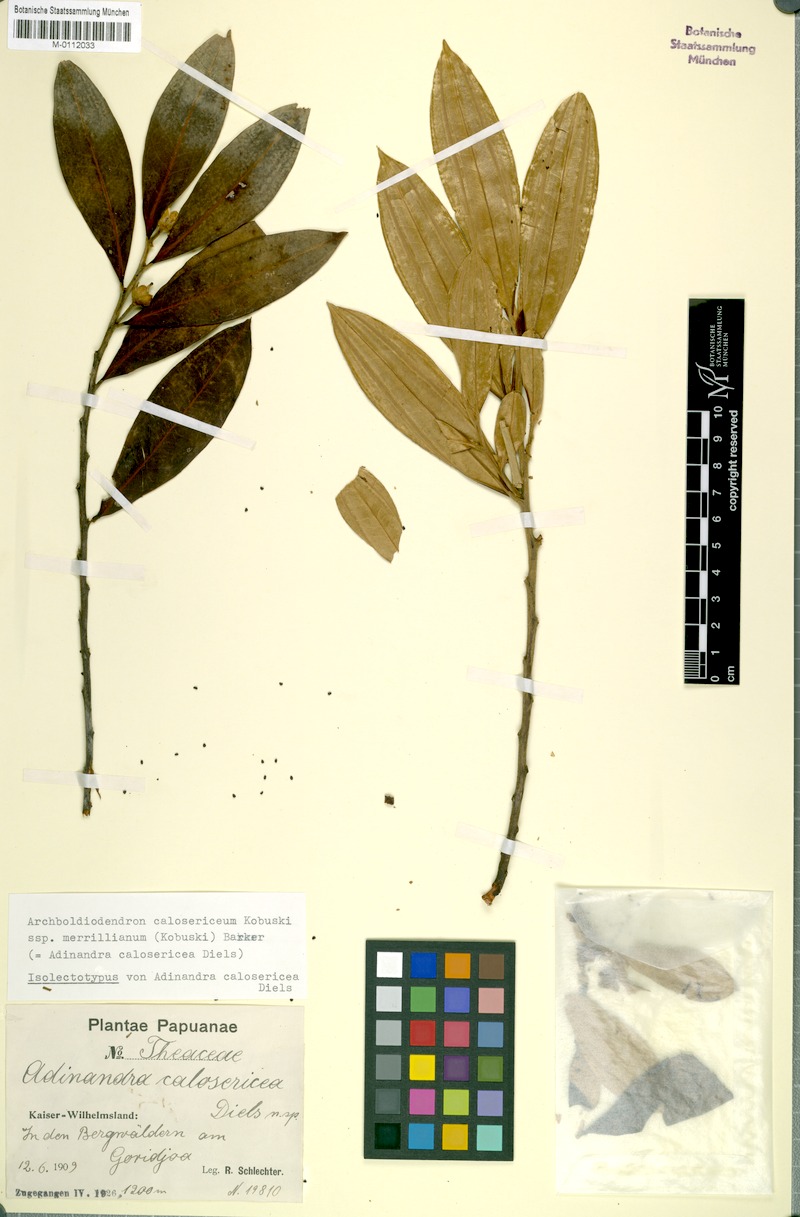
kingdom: Plantae
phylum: Tracheophyta
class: Magnoliopsida
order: Ericales
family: Pentaphylacaceae
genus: Archboldiodendron
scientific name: Archboldiodendron calosericeum
